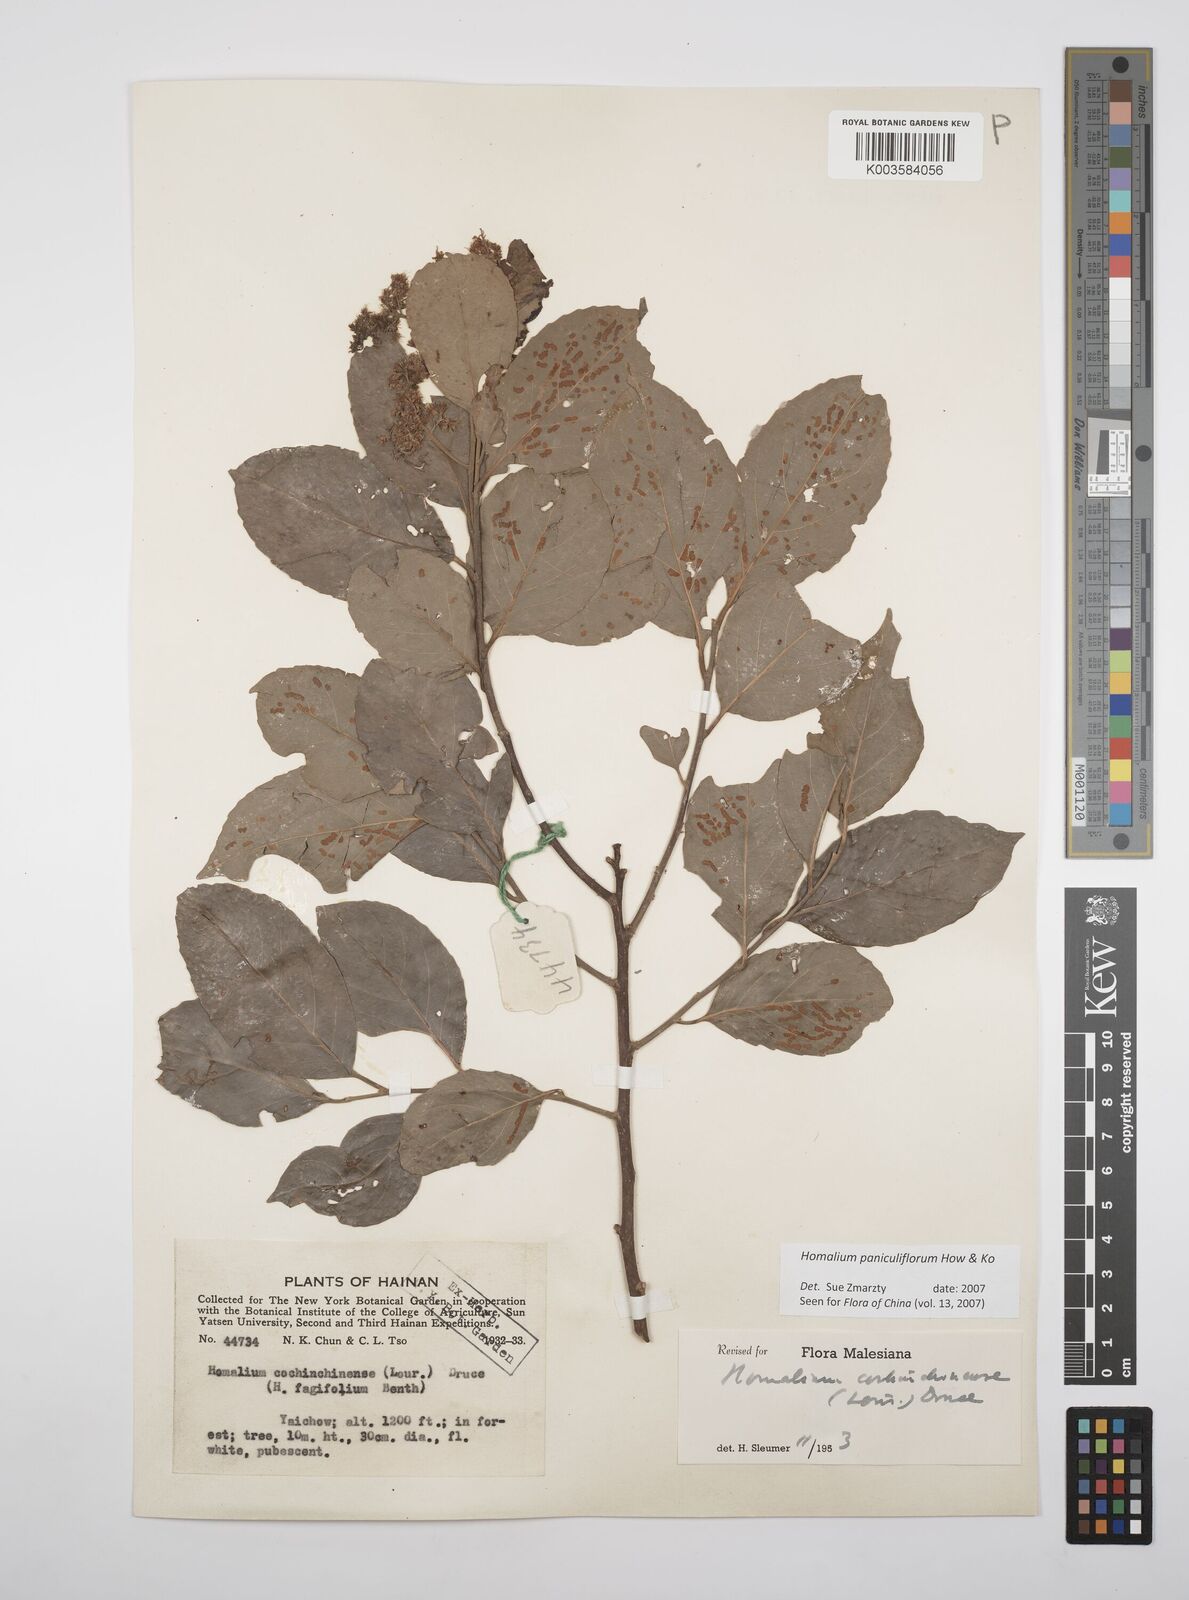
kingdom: Plantae
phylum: Tracheophyta
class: Magnoliopsida
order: Malpighiales
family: Salicaceae
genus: Homalium
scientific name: Homalium paniculiflorum
